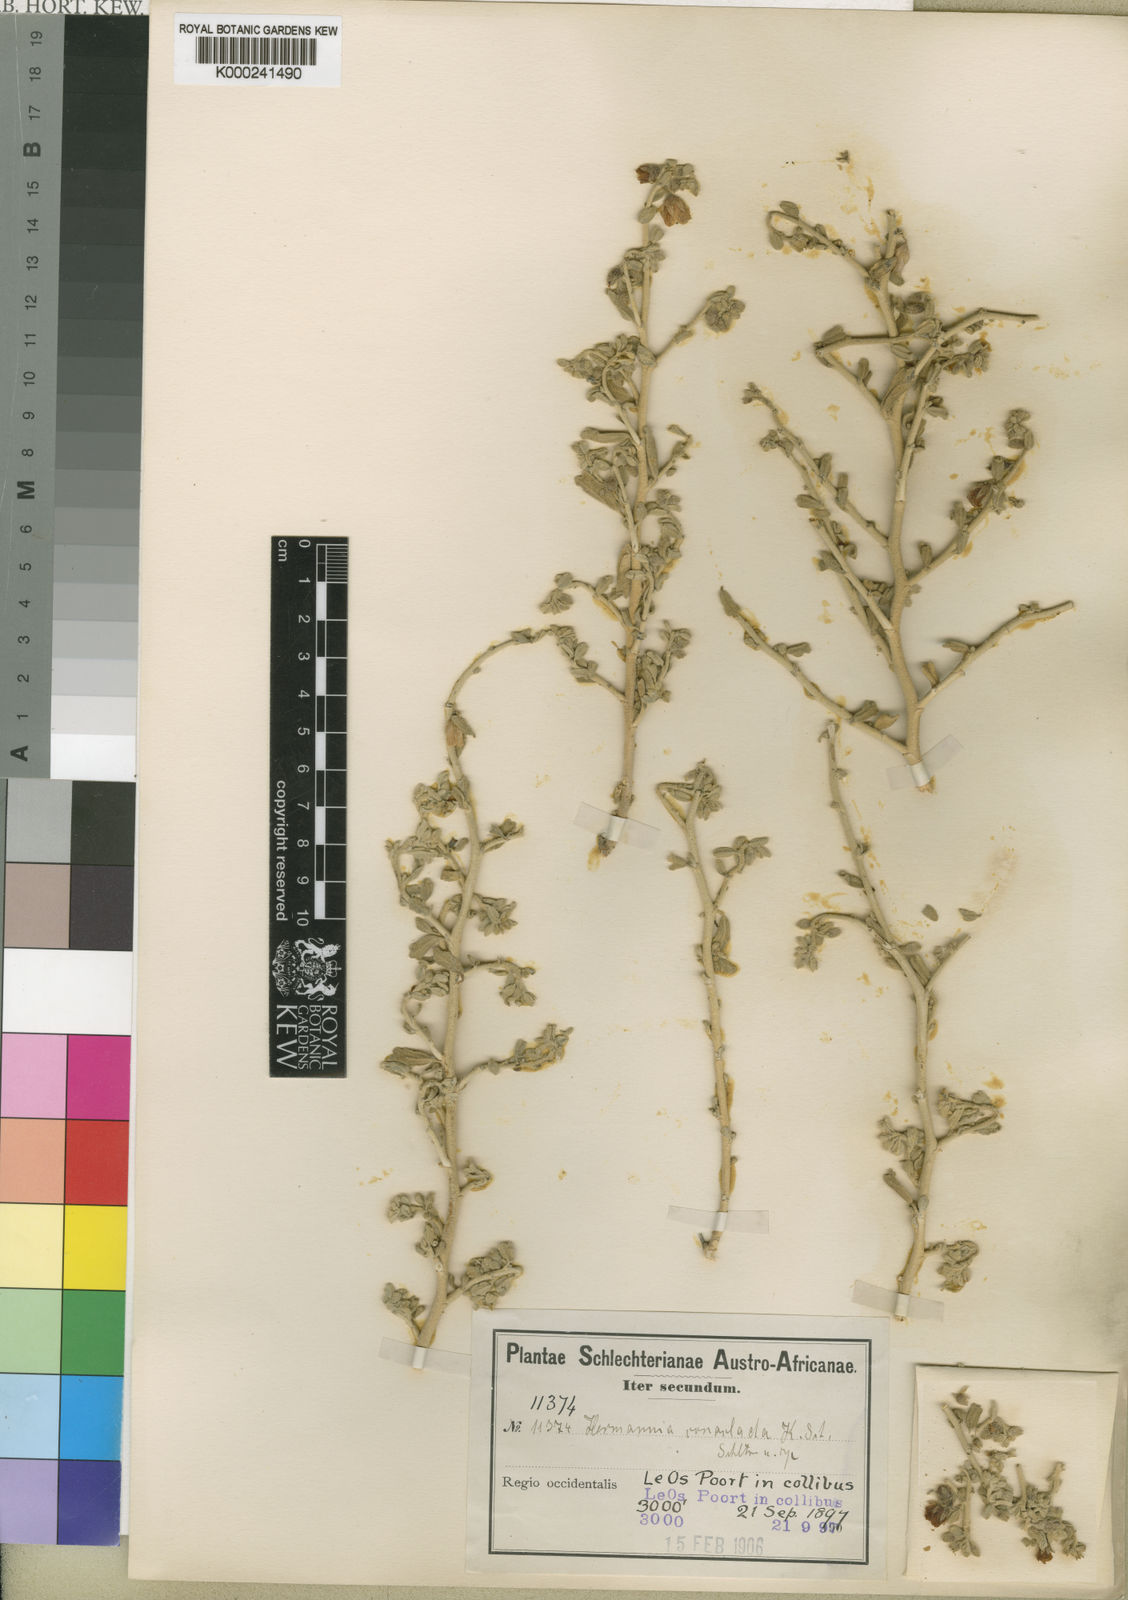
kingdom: Plantae
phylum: Tracheophyta
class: Magnoliopsida
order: Malvales
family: Malvaceae
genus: Hermannia
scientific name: Hermannia
